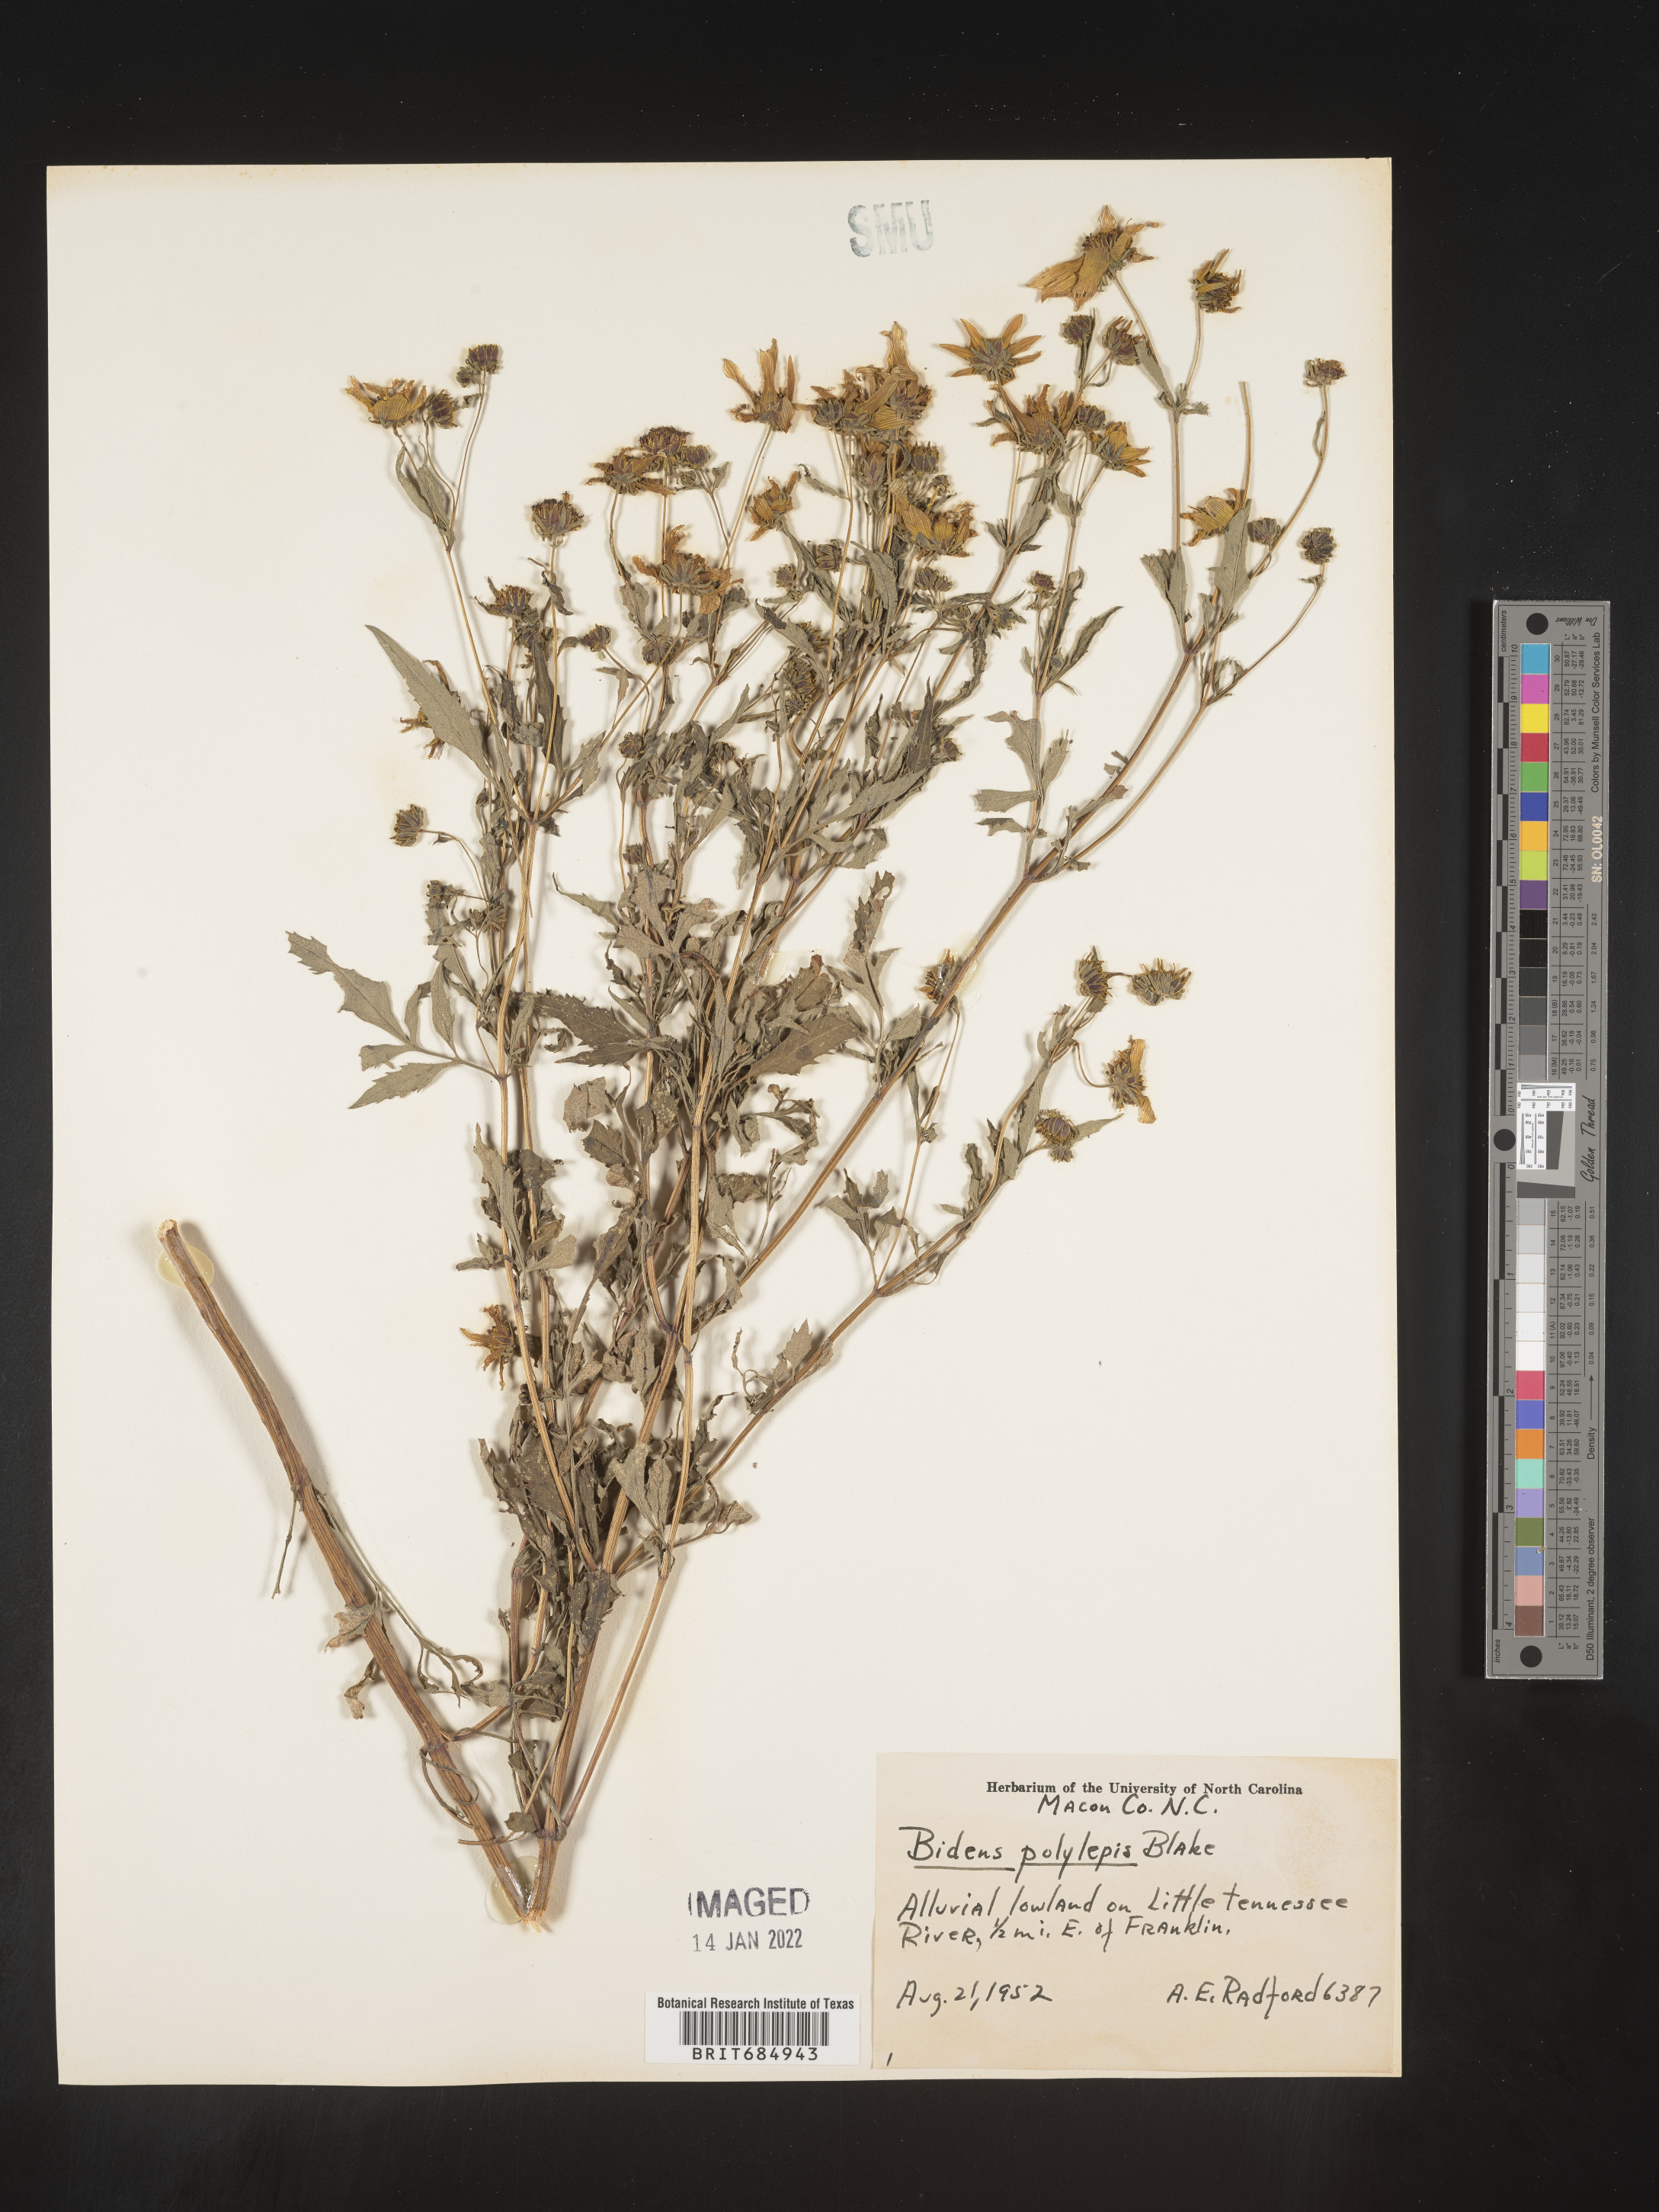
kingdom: Plantae
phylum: Tracheophyta
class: Magnoliopsida
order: Asterales
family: Asteraceae
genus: Bidens
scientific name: Bidens polylepis
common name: Awnless beggarticks
